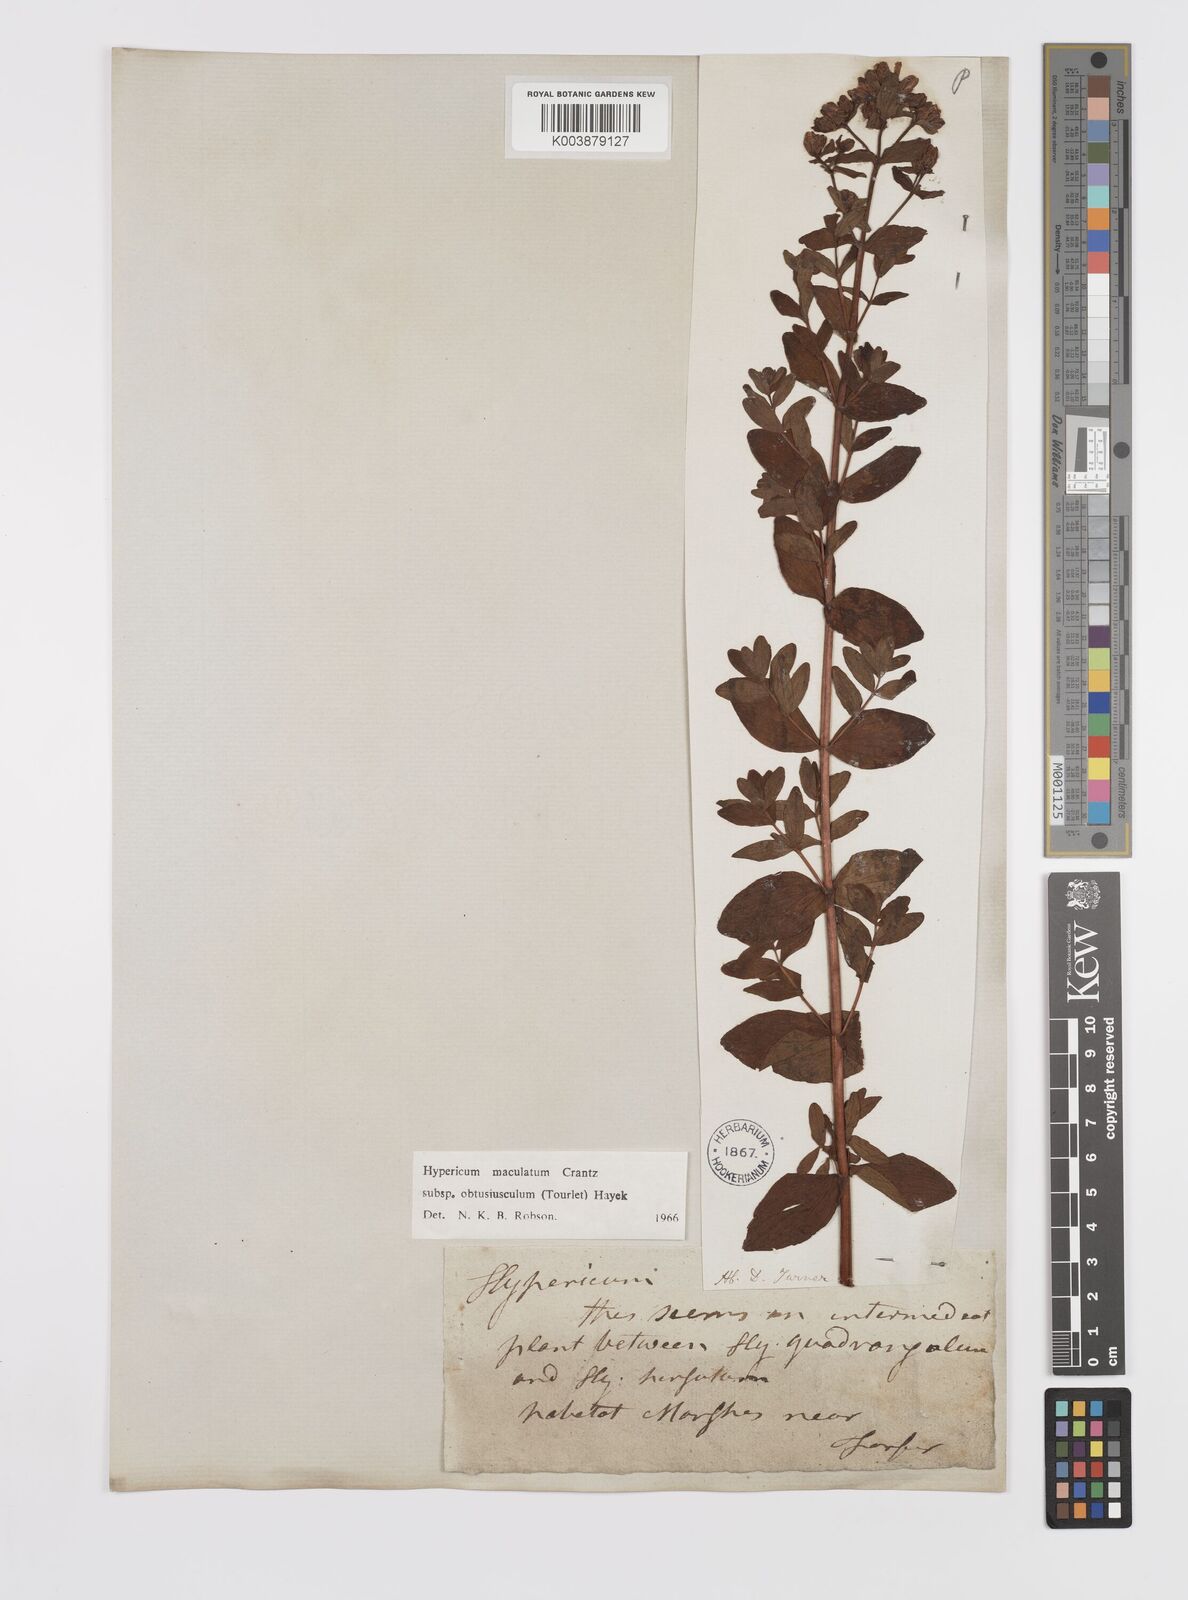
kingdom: Plantae
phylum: Tracheophyta
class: Magnoliopsida
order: Malpighiales
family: Hypericaceae
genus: Hypericum
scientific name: Hypericum dubium
